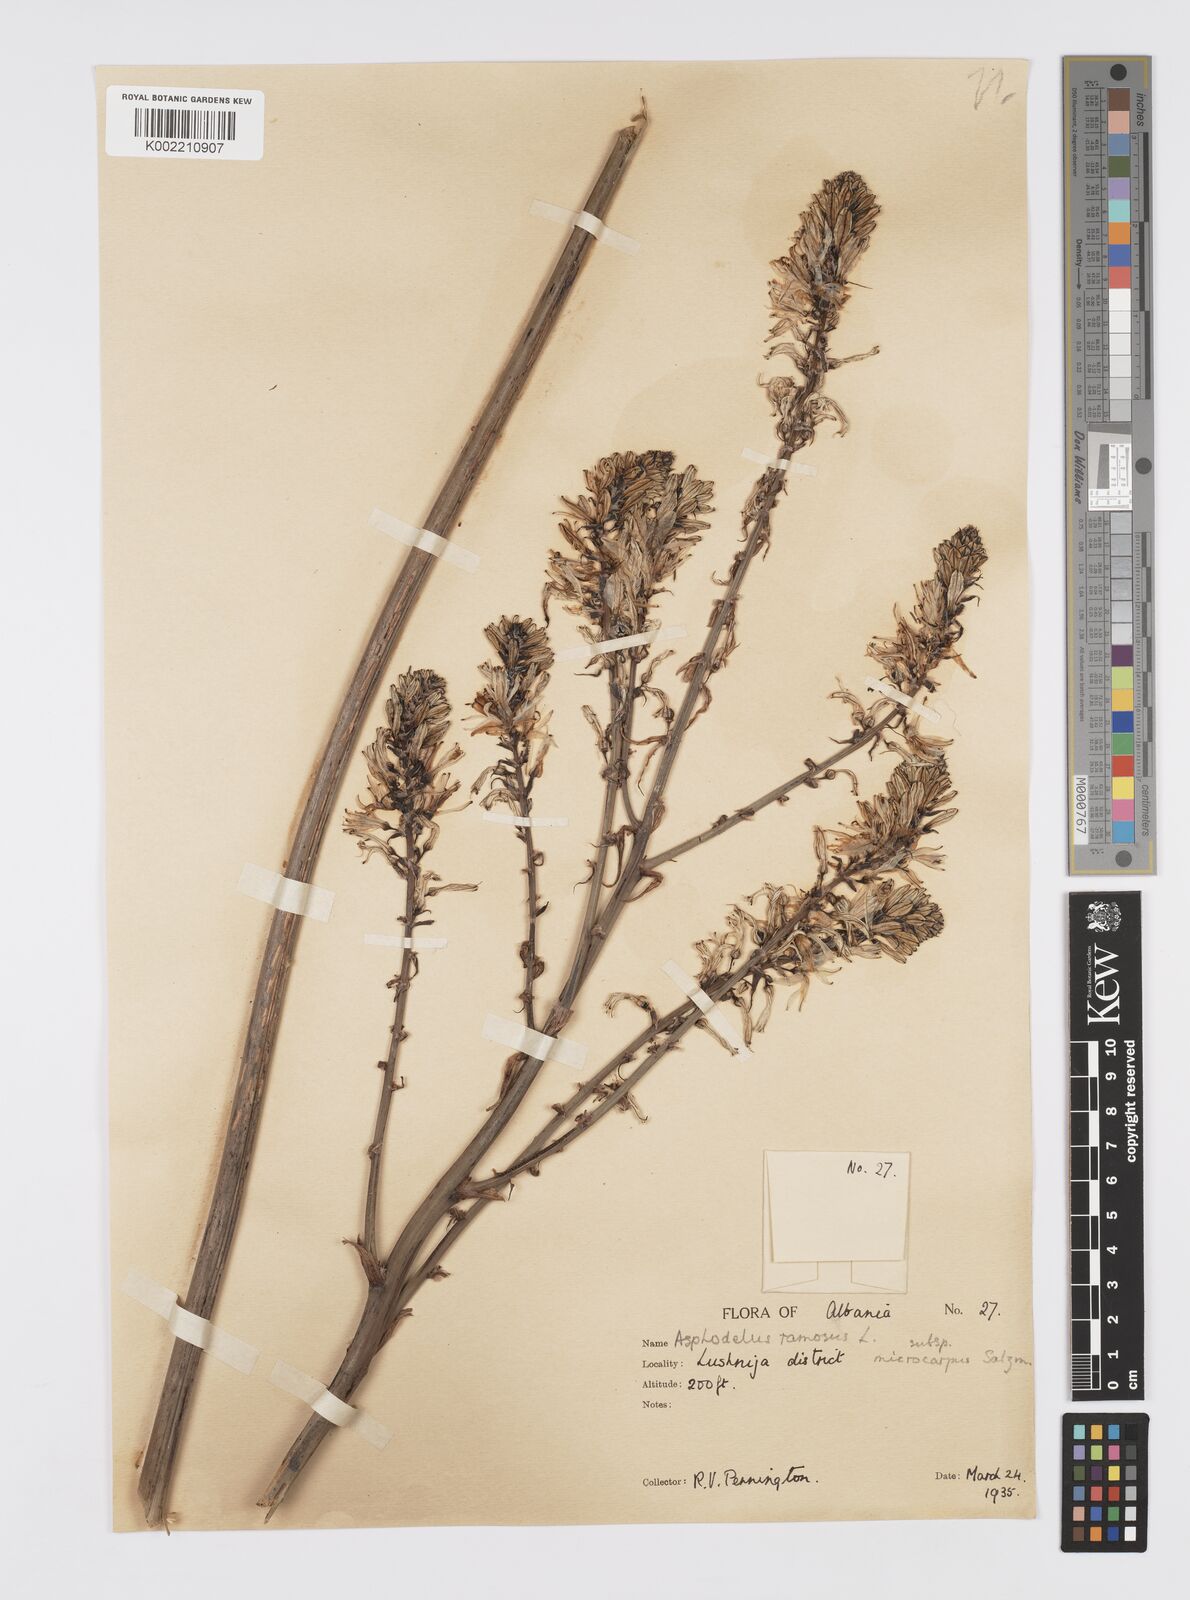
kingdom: Plantae
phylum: Tracheophyta
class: Liliopsida
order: Asparagales
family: Asphodelaceae
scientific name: Asphodelaceae
